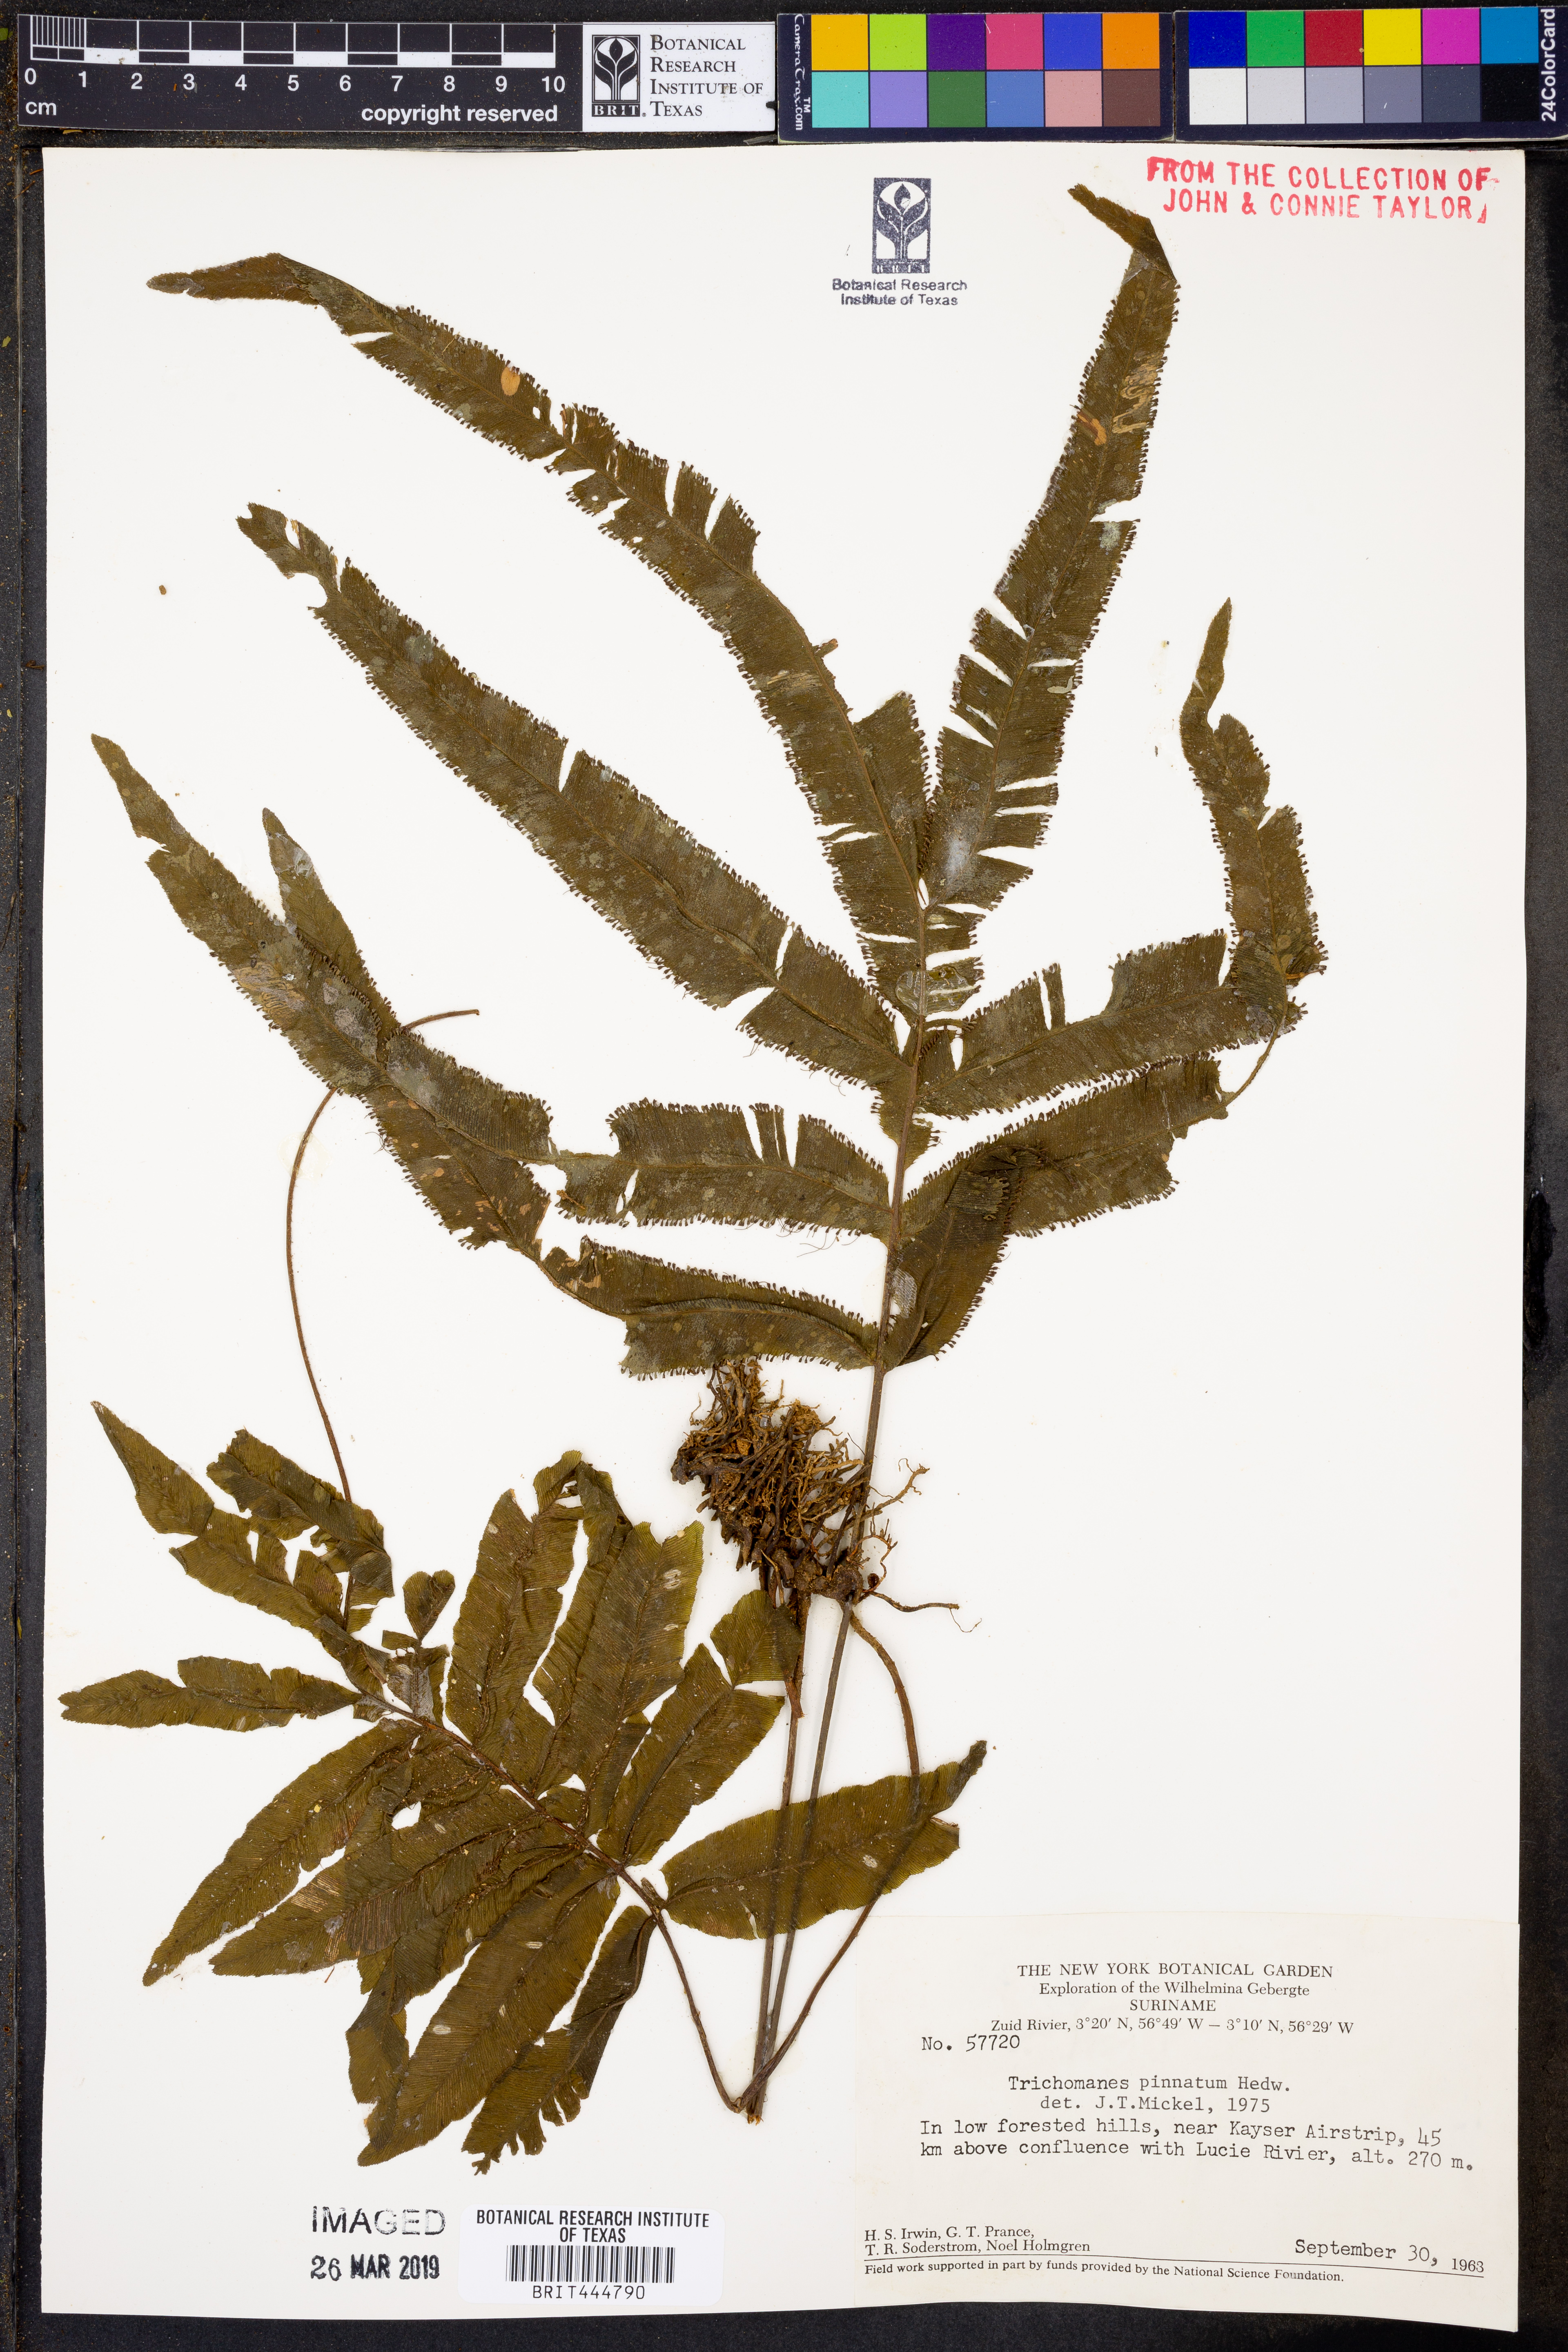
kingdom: Plantae
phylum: Tracheophyta
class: Polypodiopsida
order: Hymenophyllales
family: Hymenophyllaceae
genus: Trichomanes
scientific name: Trichomanes pinnatum
